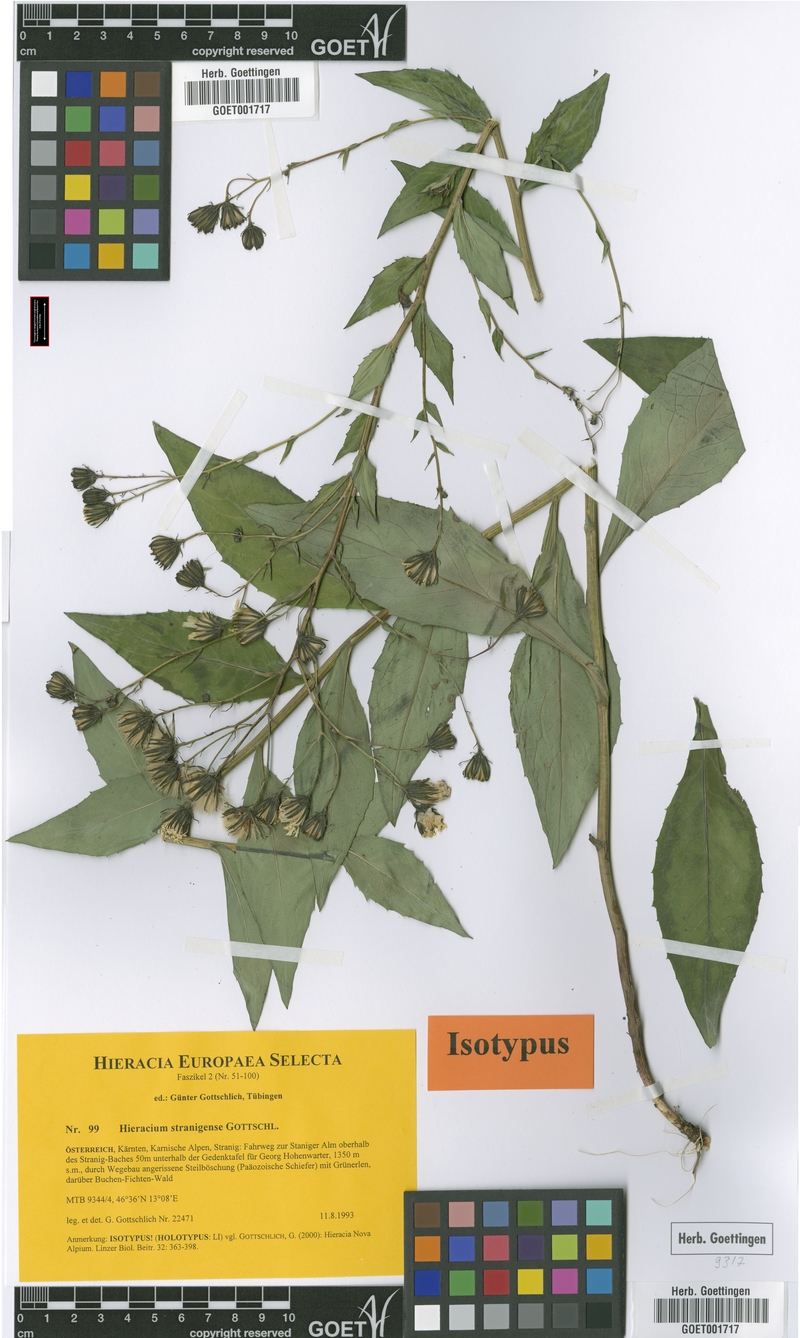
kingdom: Plantae
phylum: Tracheophyta
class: Magnoliopsida
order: Asterales
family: Asteraceae
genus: Hieracium
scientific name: Hieracium stranigense
